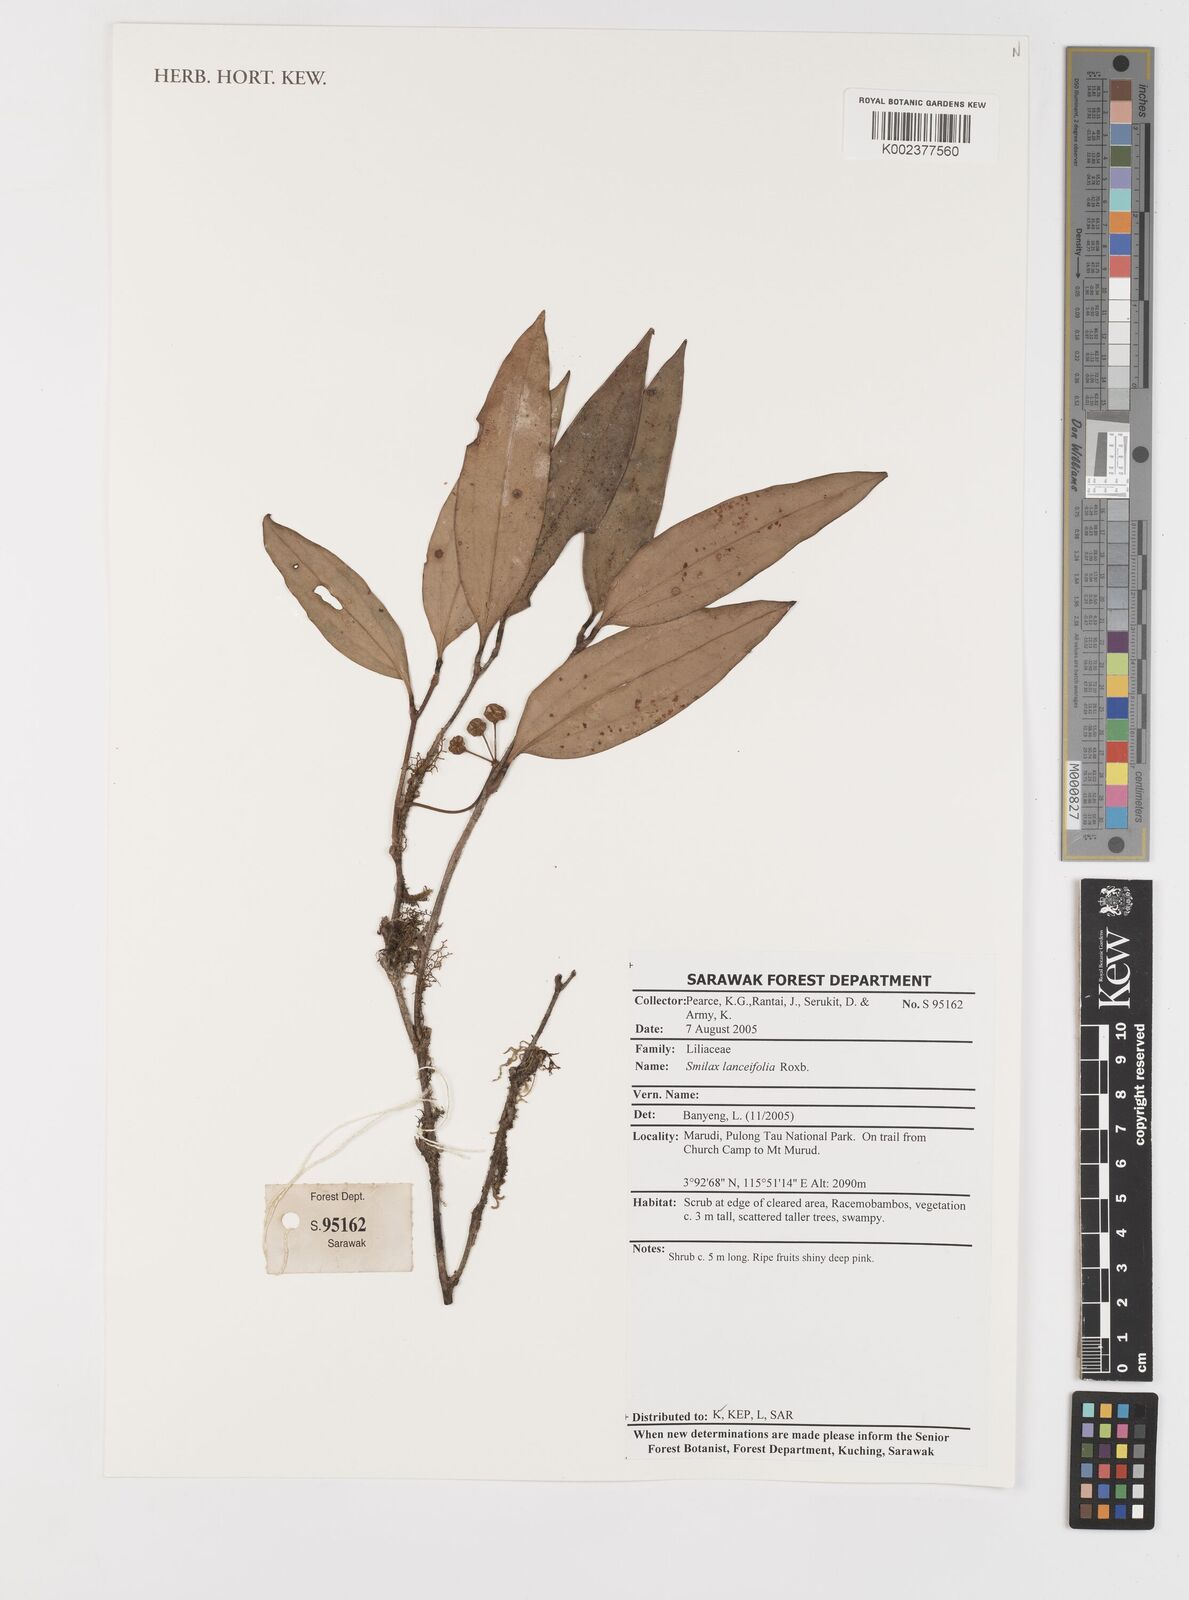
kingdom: Plantae
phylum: Tracheophyta
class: Liliopsida
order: Liliales
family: Smilacaceae
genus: Smilax
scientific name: Smilax lanceifolia
